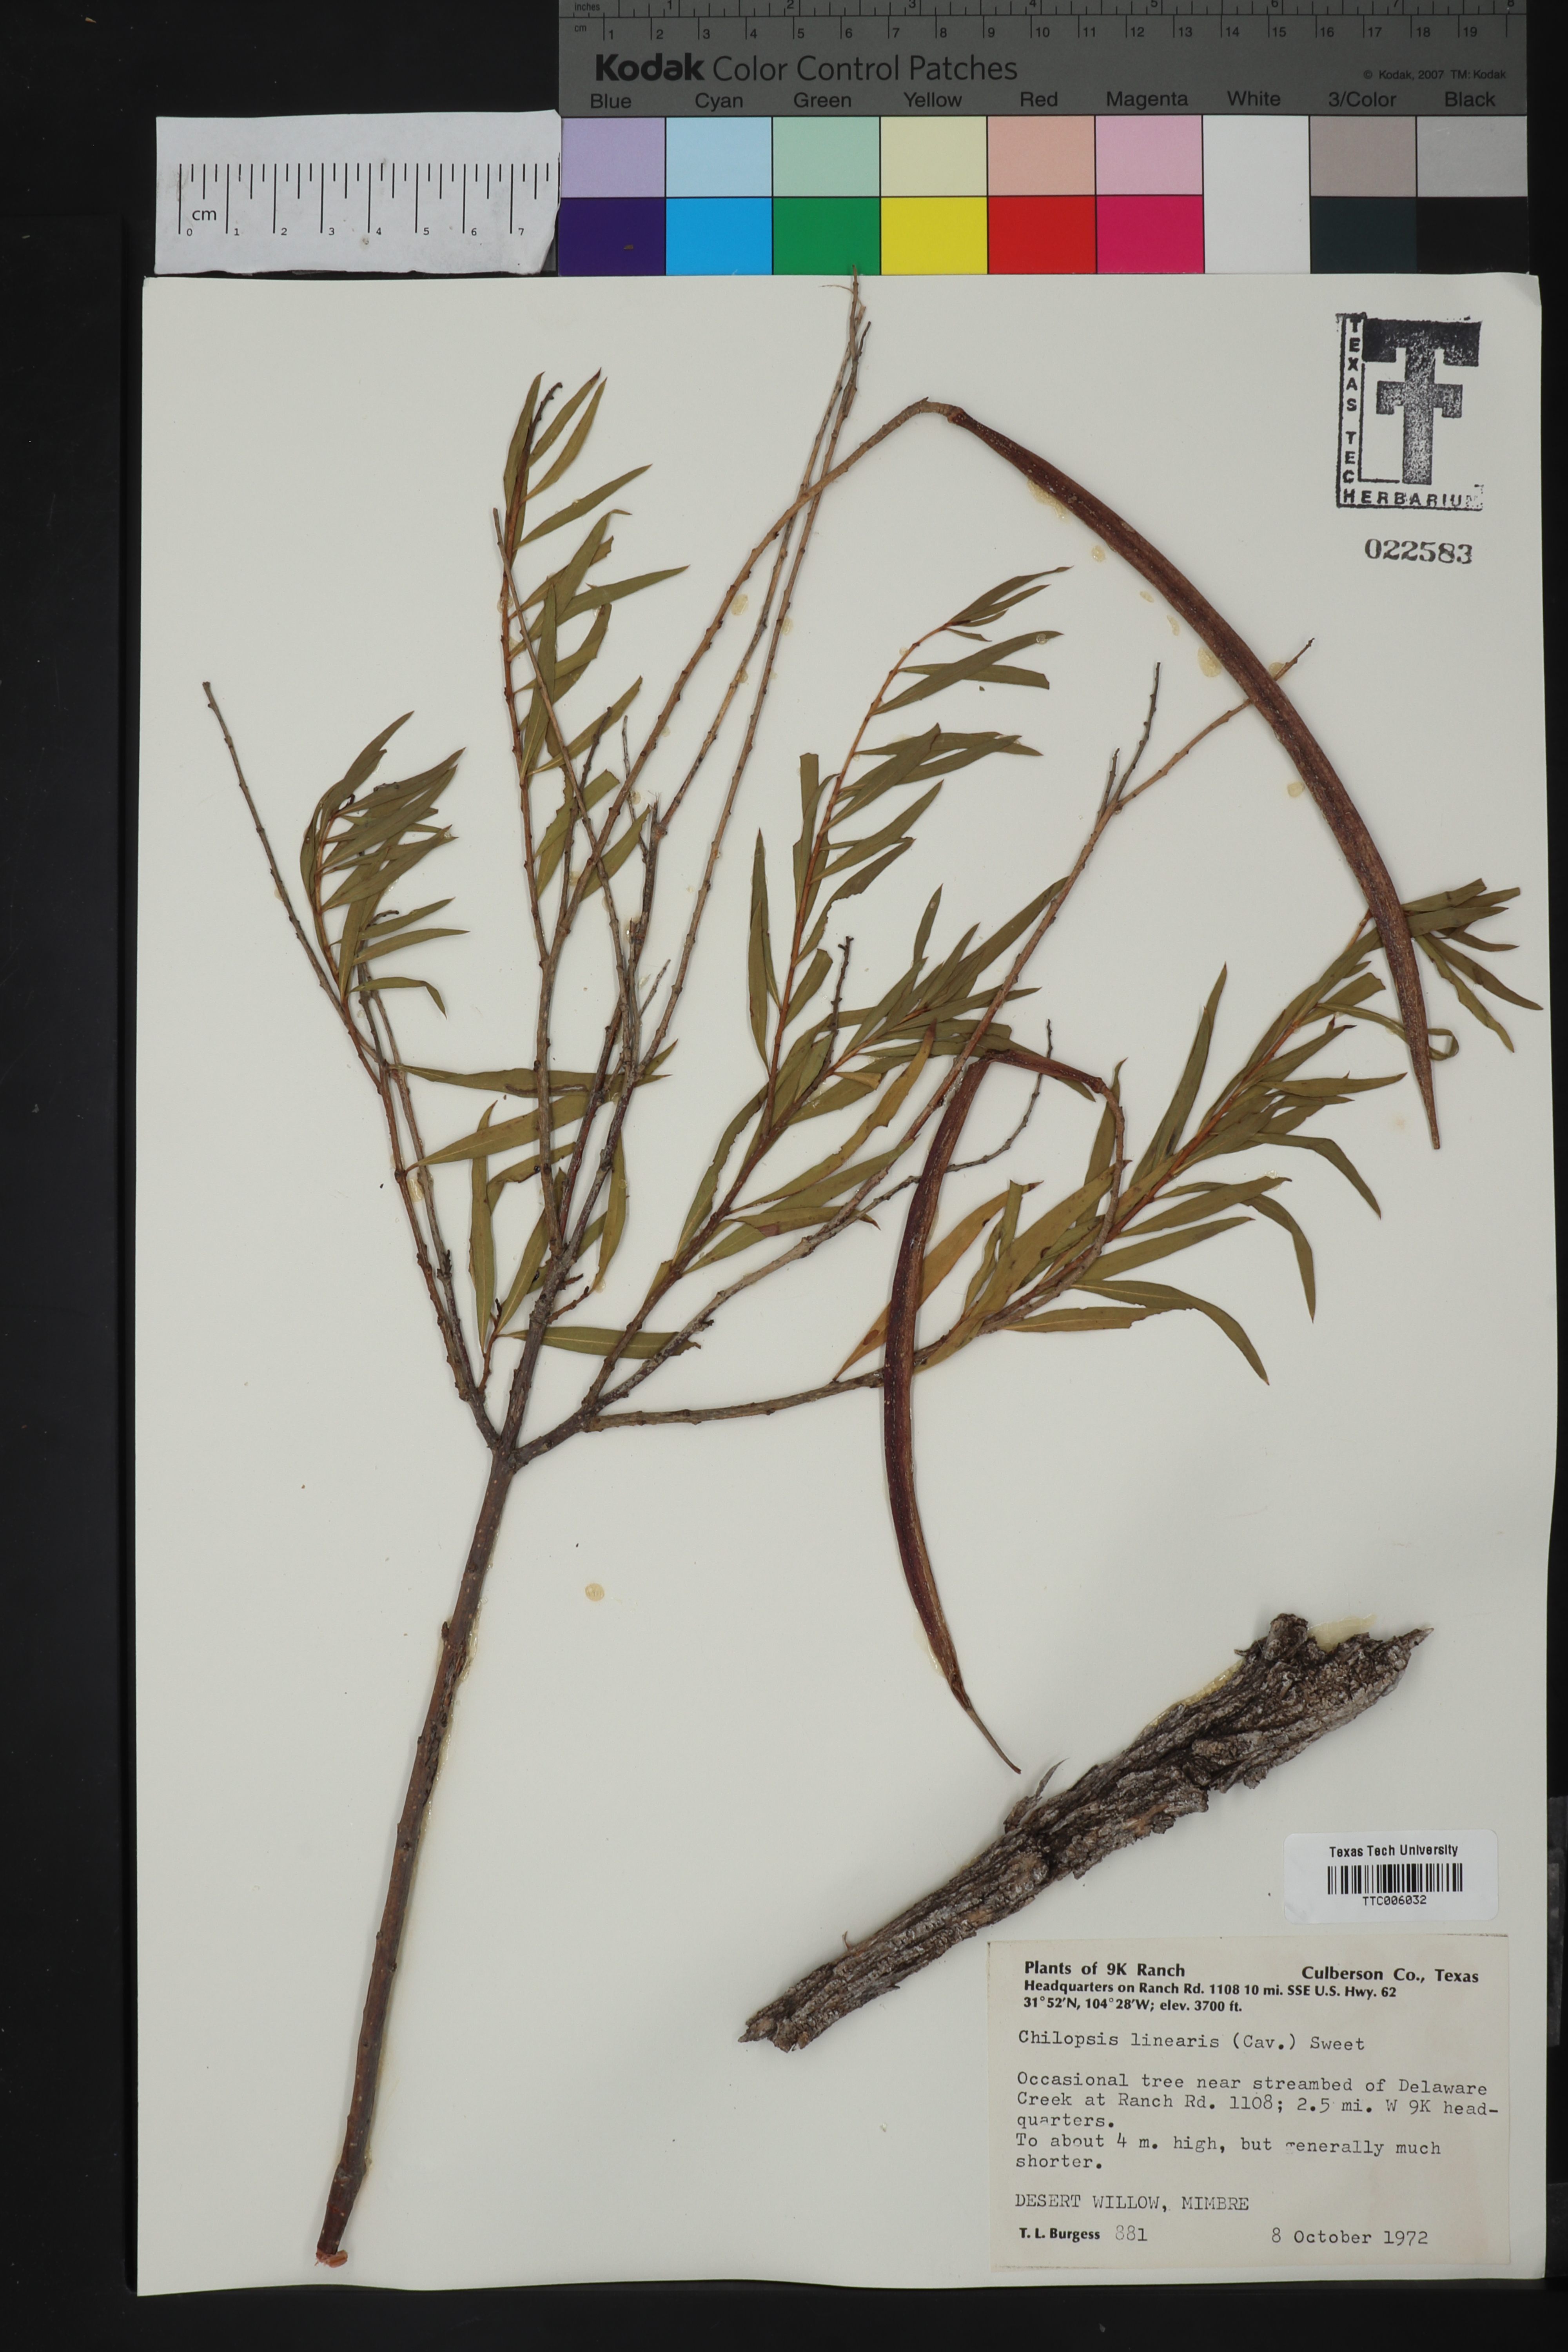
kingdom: Plantae
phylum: Tracheophyta
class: Magnoliopsida
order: Lamiales
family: Bignoniaceae
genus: Chilopsis
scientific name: Chilopsis linearis
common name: Desert-willow
